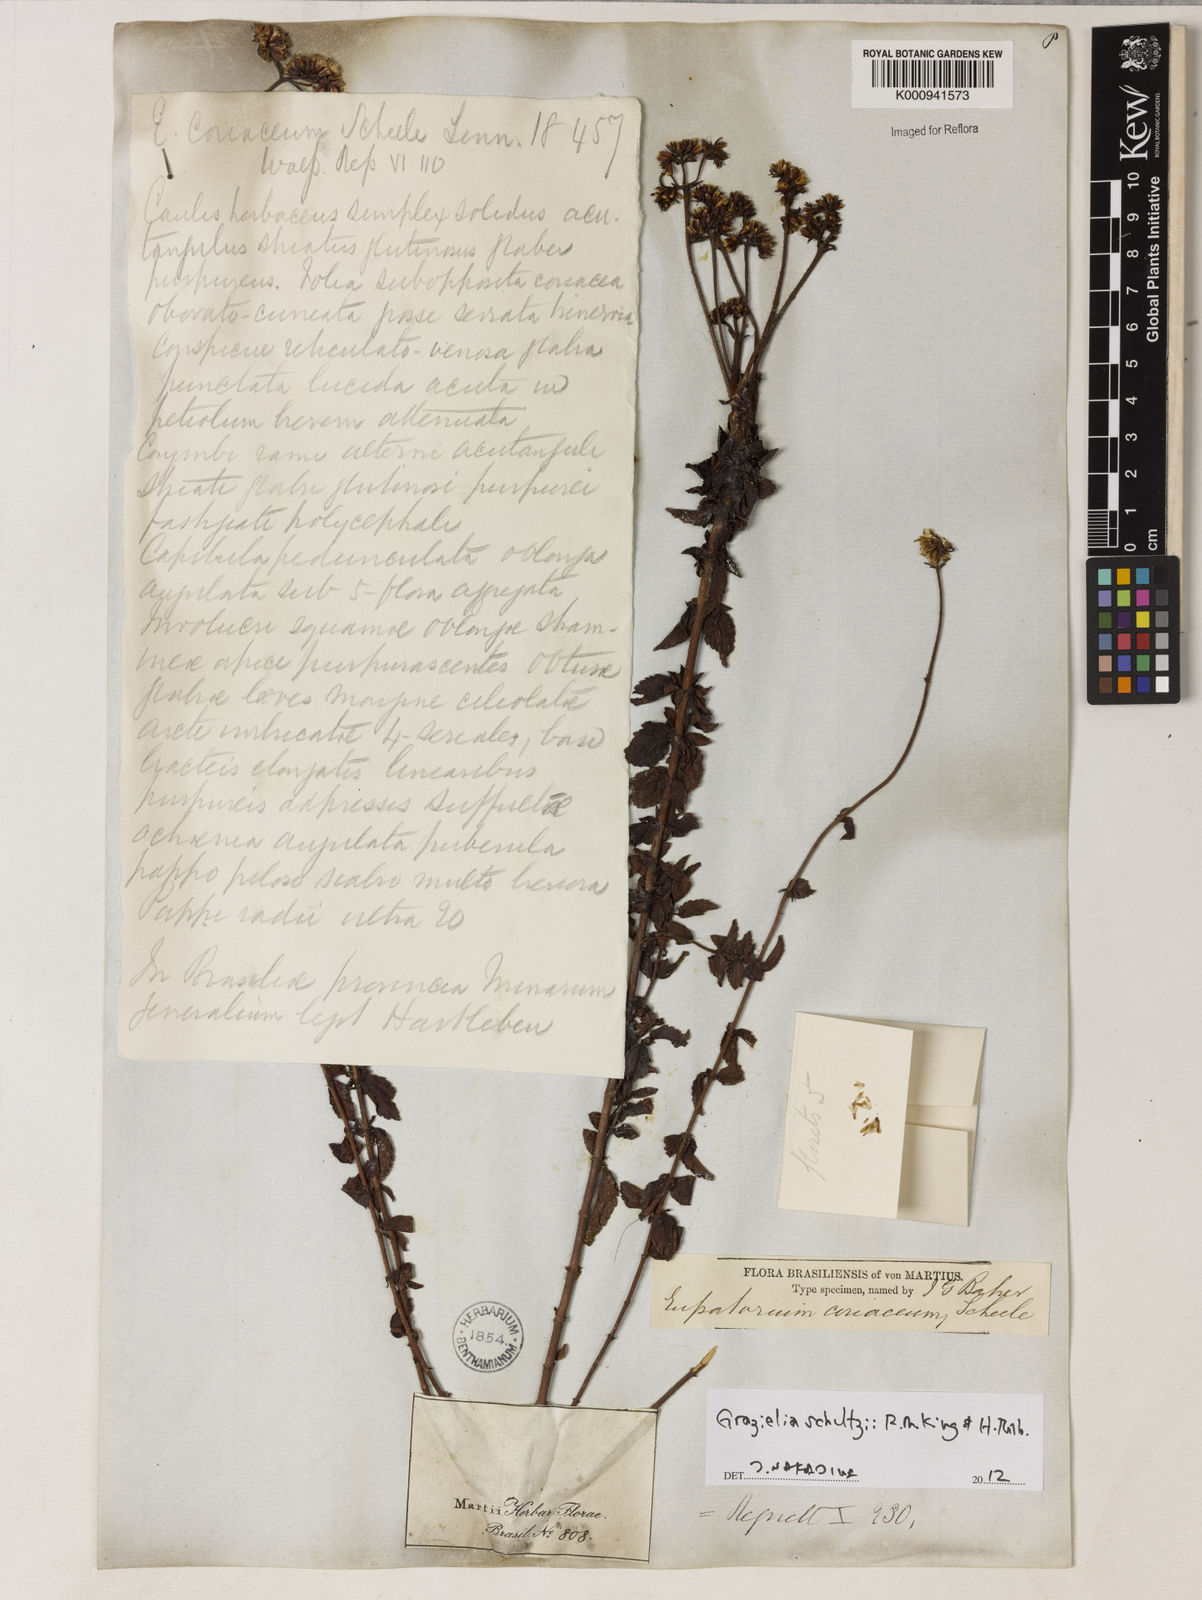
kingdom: Plantae
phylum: Tracheophyta
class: Magnoliopsida
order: Asterales
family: Asteraceae
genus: Grazielia
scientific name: Grazielia
